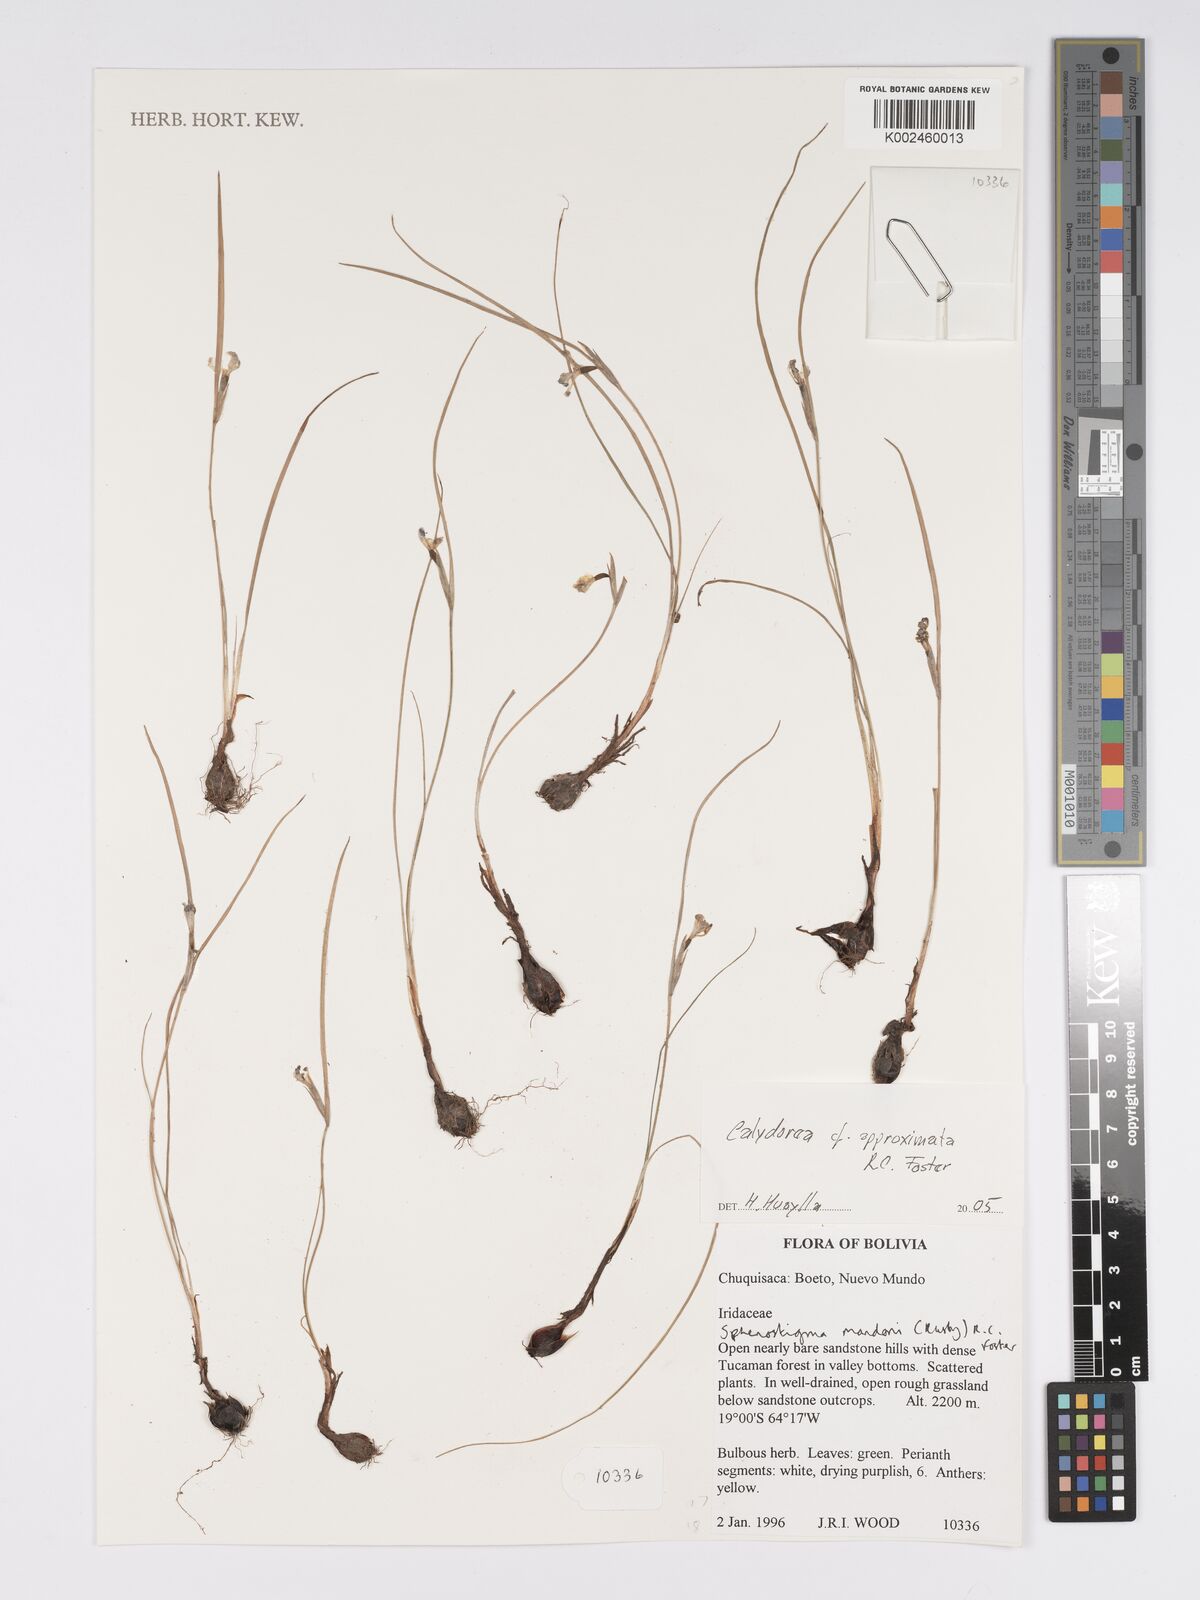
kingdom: Plantae
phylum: Tracheophyta
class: Liliopsida
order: Asparagales
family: Iridaceae
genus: Calydorea
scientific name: Calydorea approximata
